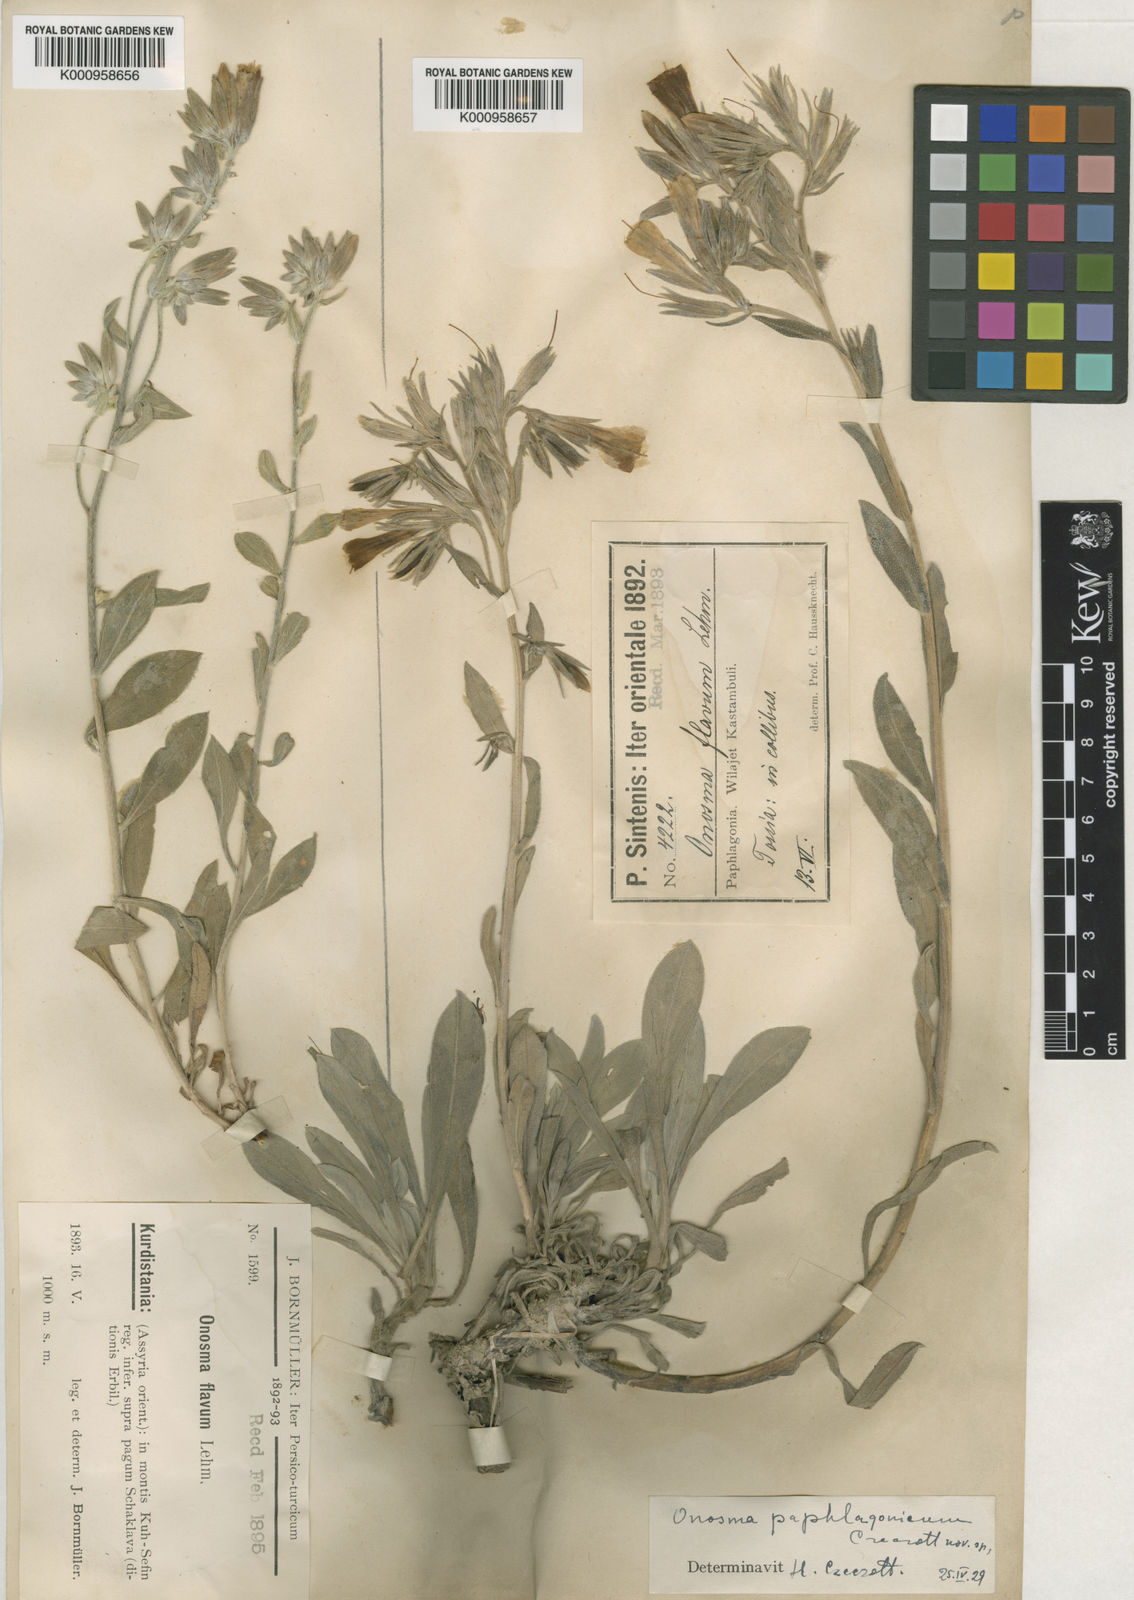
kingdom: Plantae
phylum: Tracheophyta
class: Magnoliopsida
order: Boraginales
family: Boraginaceae
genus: Onosma
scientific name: Onosma isaurica
